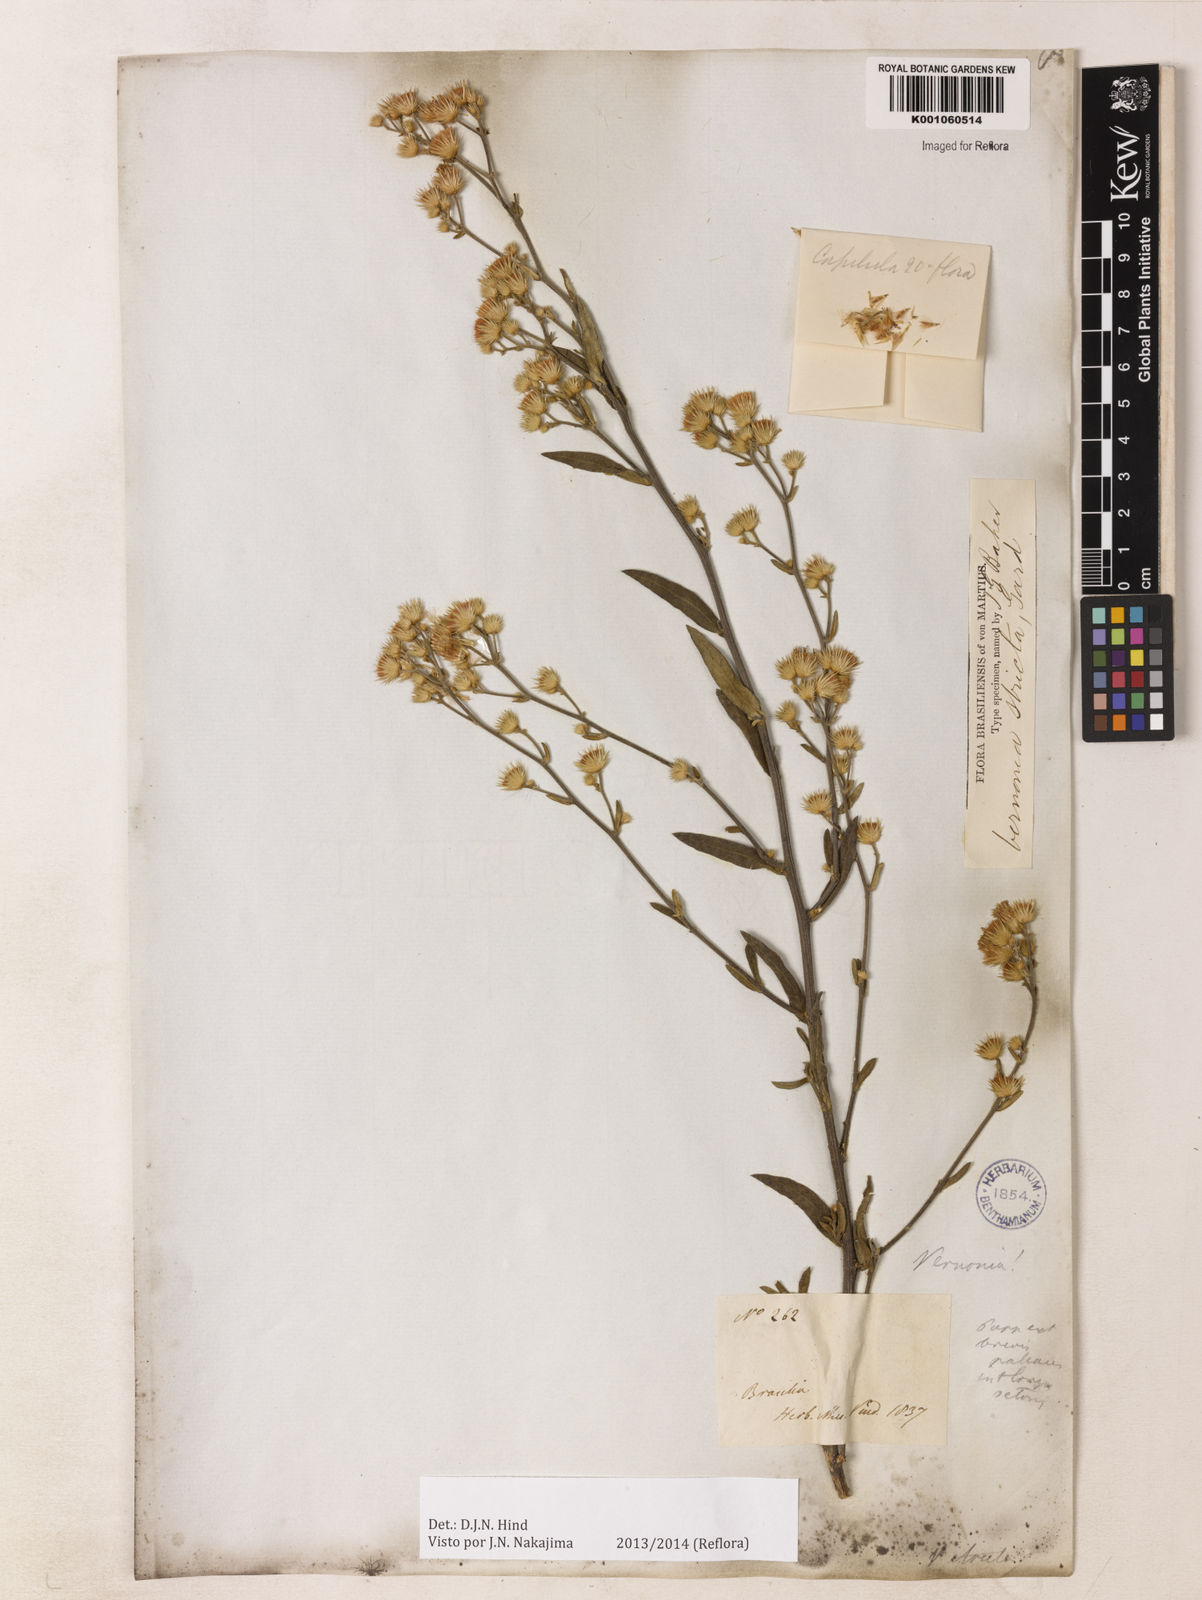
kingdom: Plantae
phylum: Tracheophyta
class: Magnoliopsida
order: Asterales
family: Asteraceae
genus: Echinocoryne
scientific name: Echinocoryne stricta
